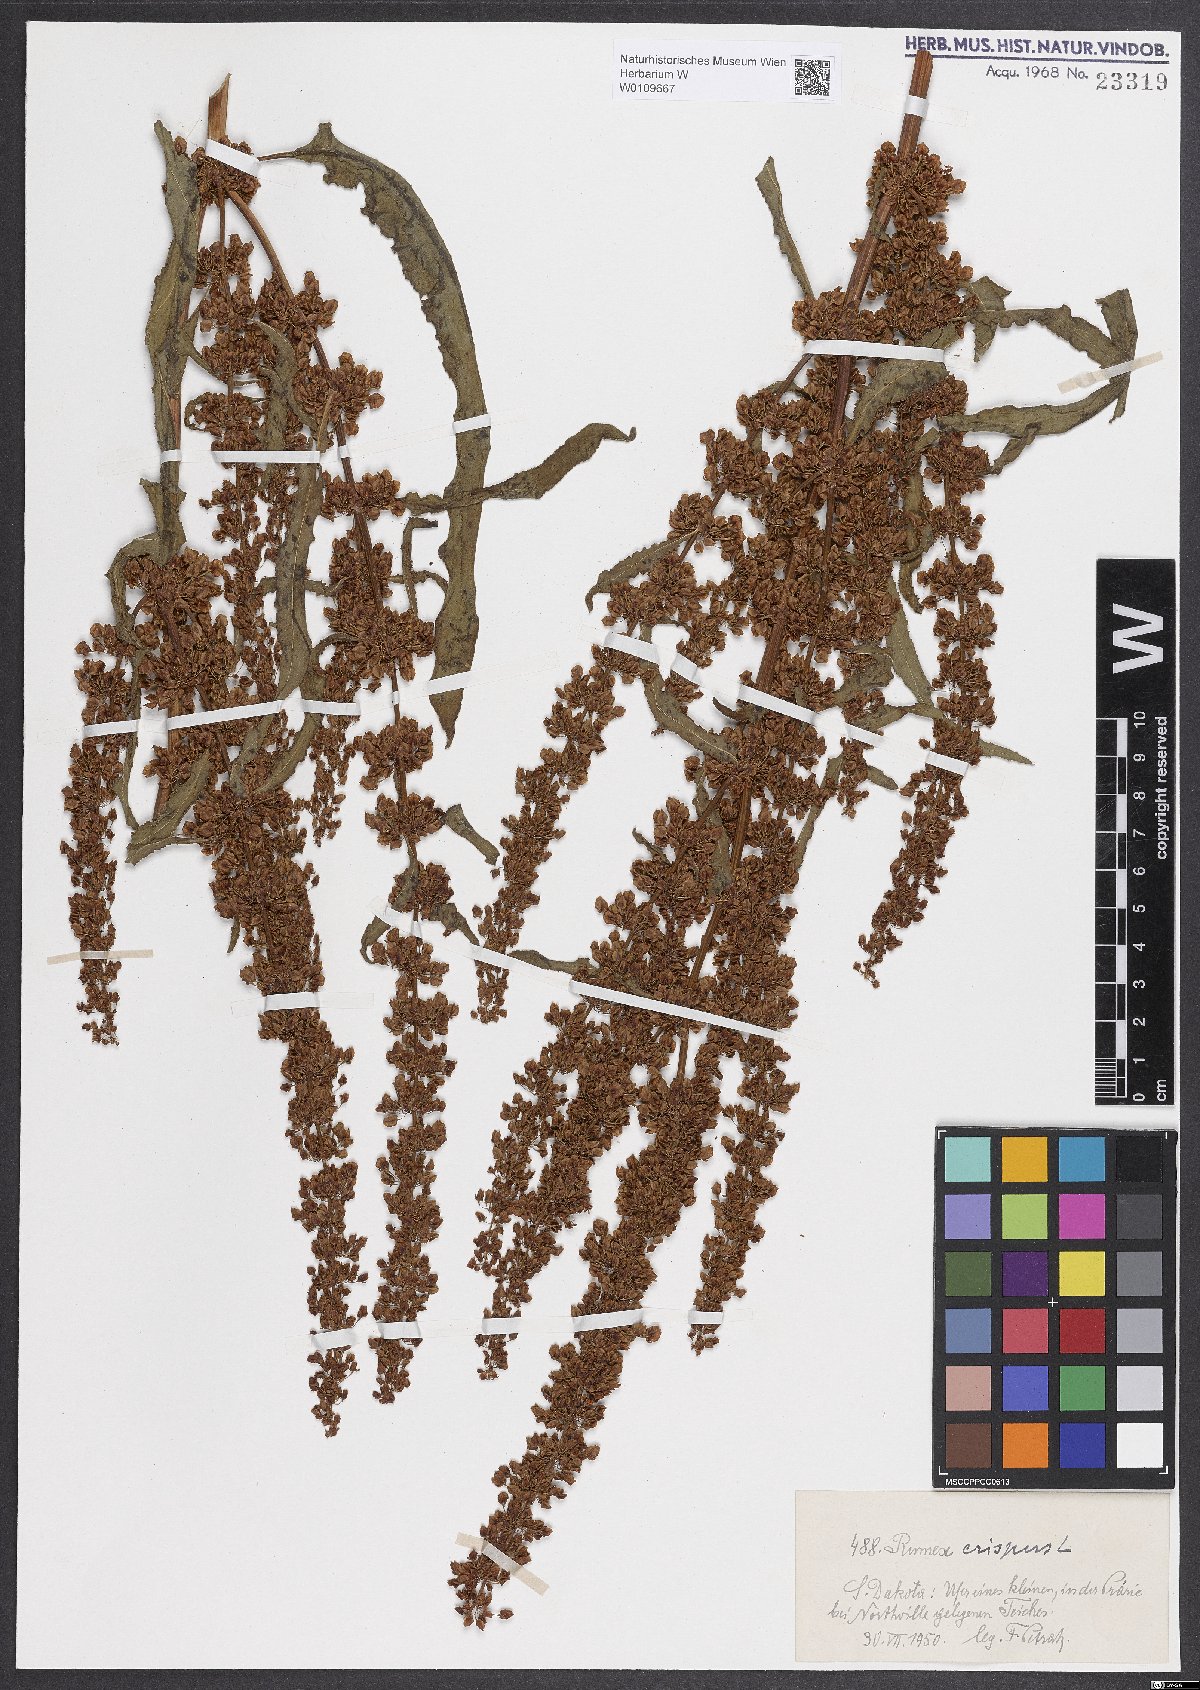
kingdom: Plantae
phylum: Tracheophyta
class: Magnoliopsida
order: Caryophyllales
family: Polygonaceae
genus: Rumex
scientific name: Rumex crispus
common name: Curled dock
